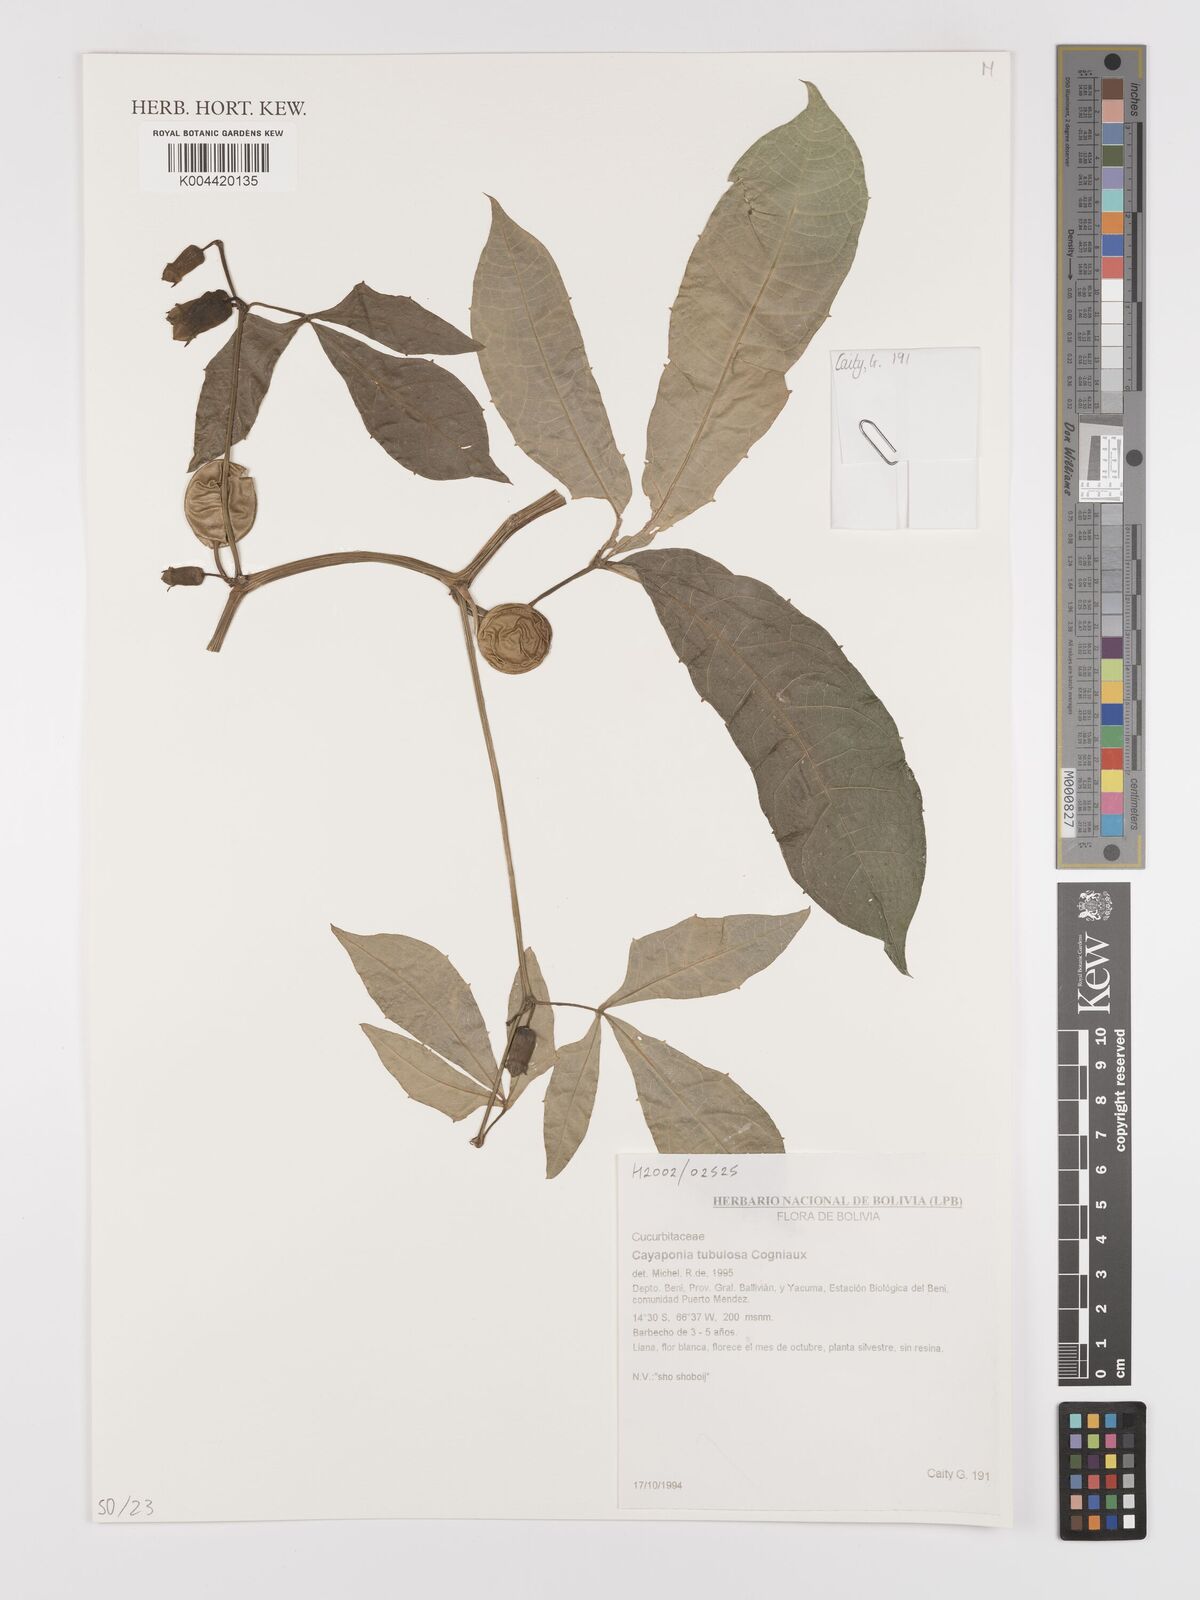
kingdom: Plantae
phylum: Tracheophyta
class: Magnoliopsida
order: Cucurbitales
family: Cucurbitaceae
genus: Cayaponia
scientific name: Cayaponia tubulosa
